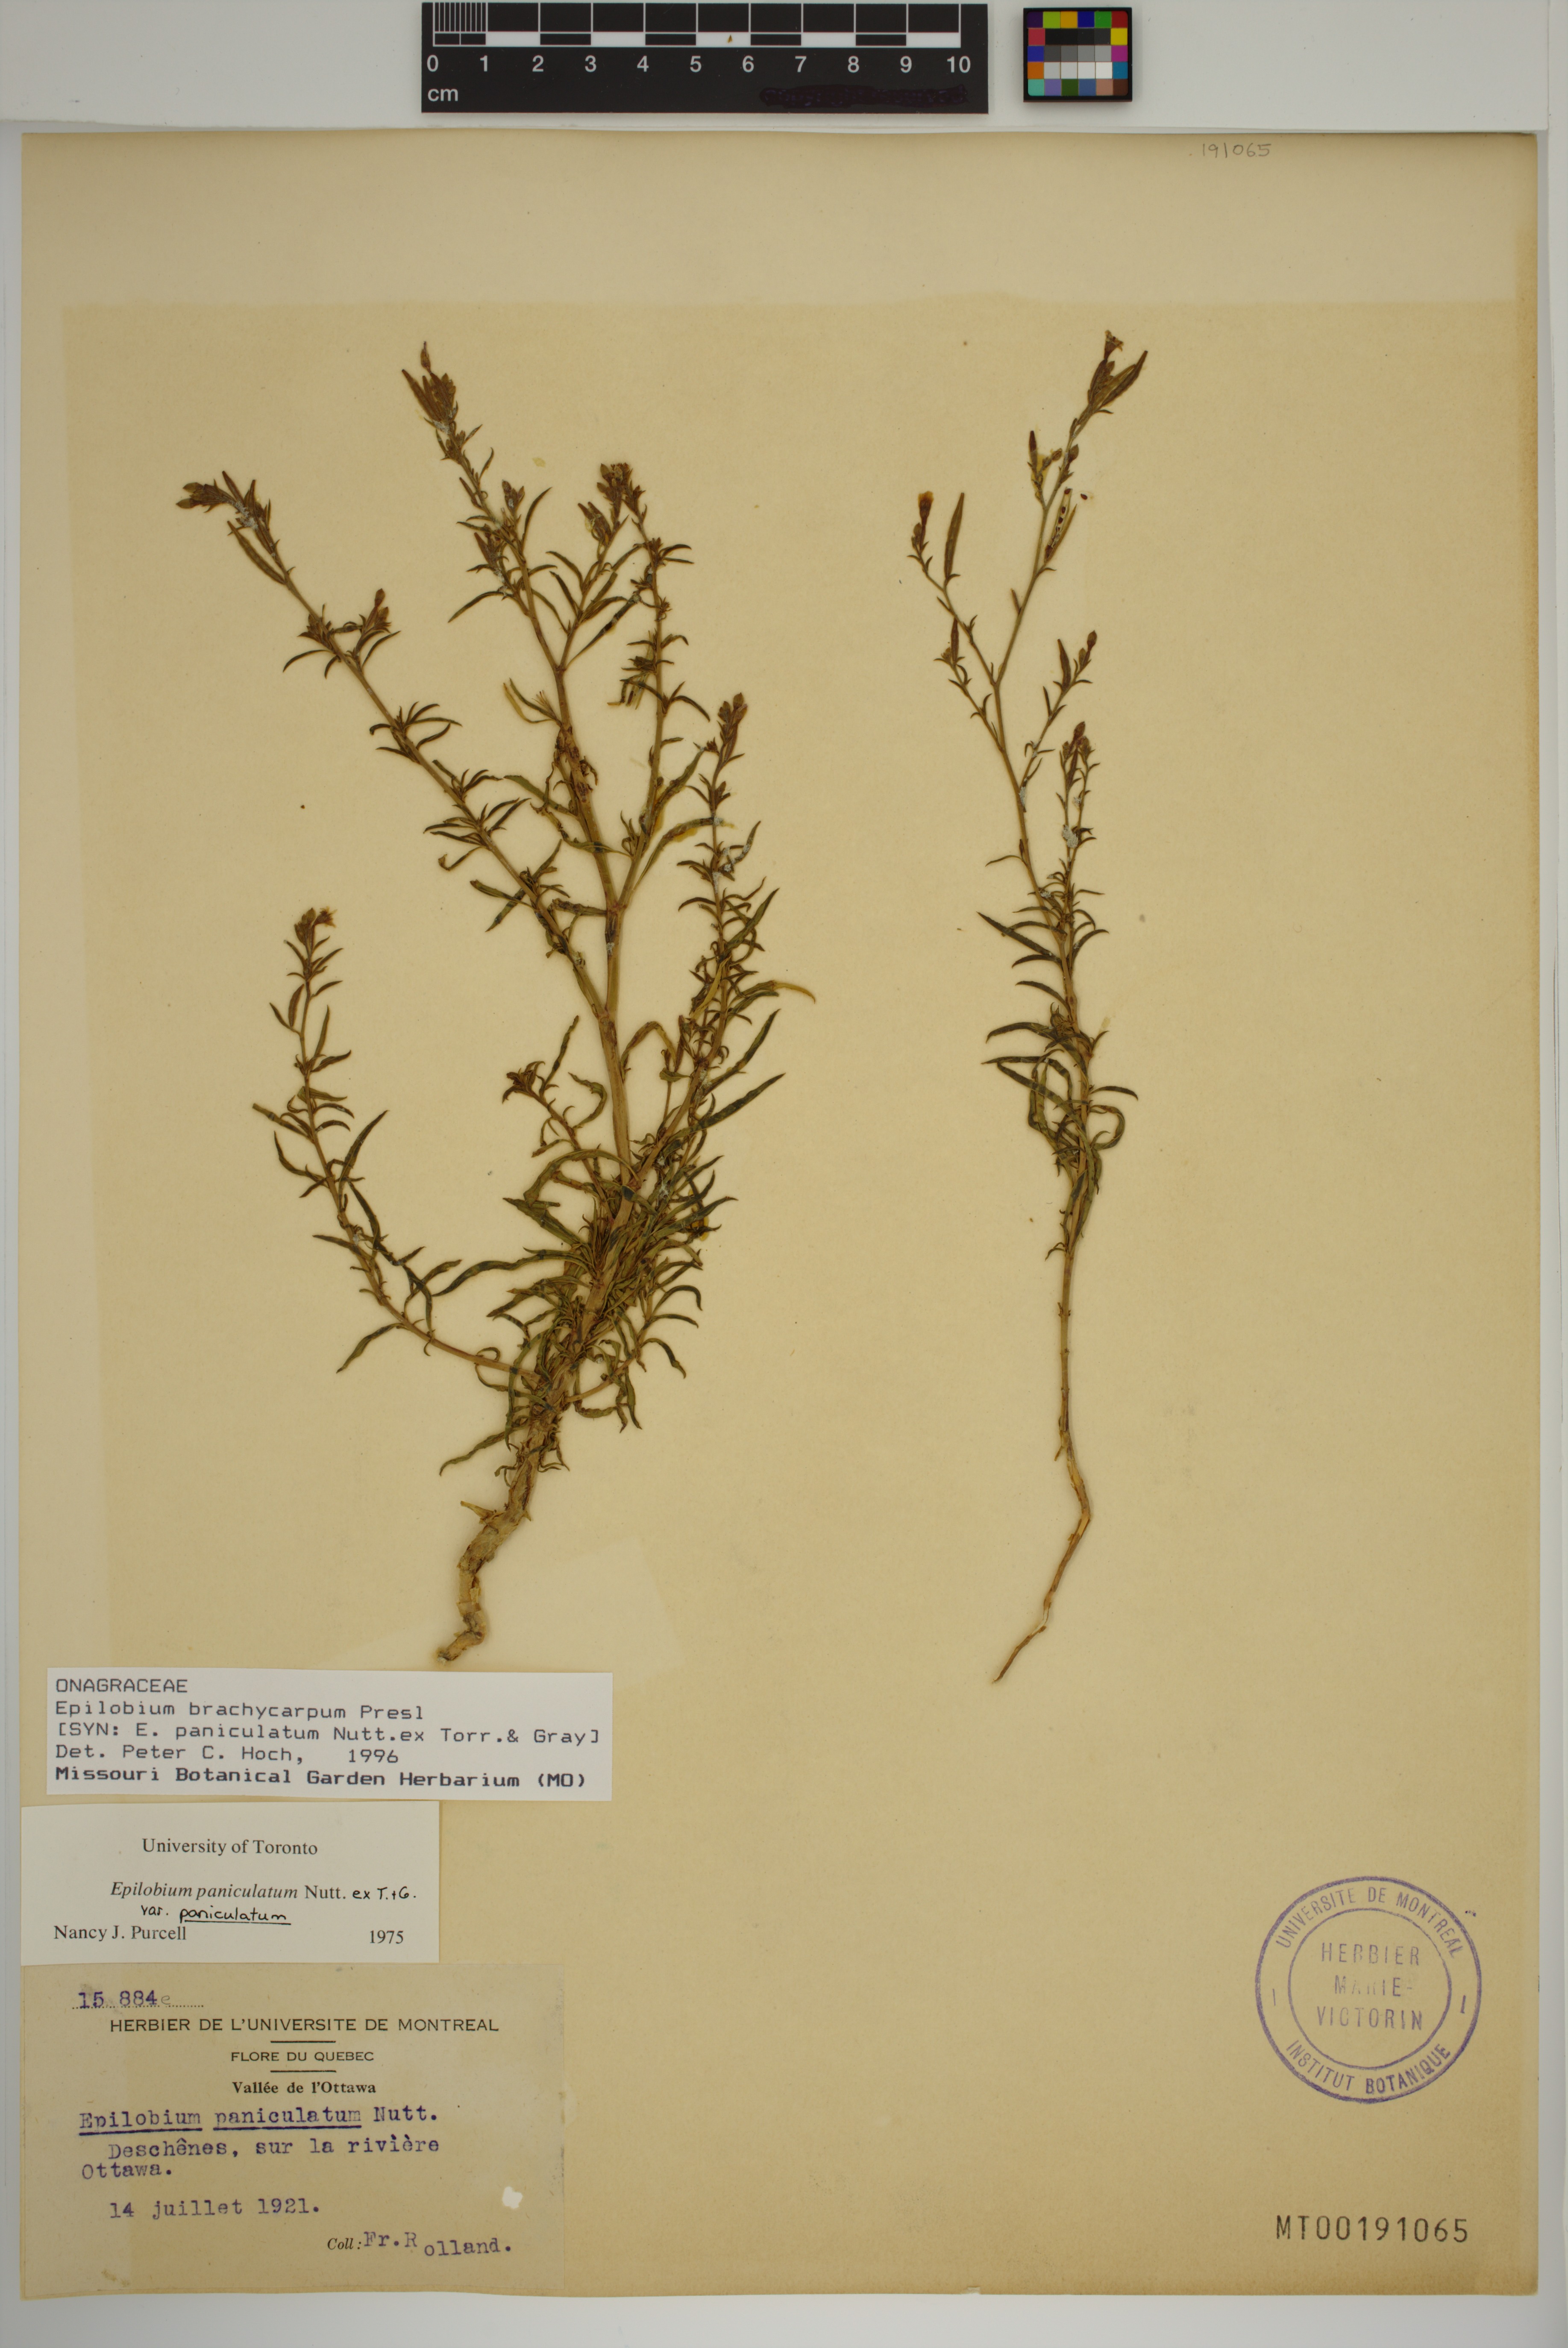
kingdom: Plantae
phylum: Tracheophyta
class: Magnoliopsida
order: Myrtales
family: Onagraceae
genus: Epilobium
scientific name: Epilobium brachycarpum
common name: Annual willowherb
